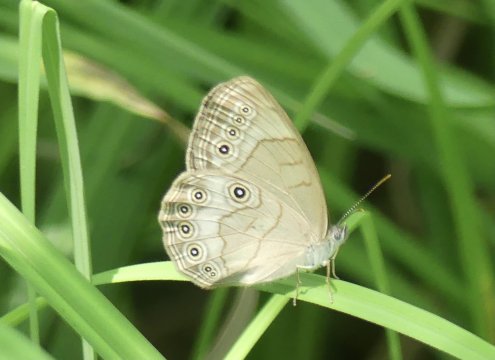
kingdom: Animalia
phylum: Arthropoda
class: Insecta
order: Lepidoptera
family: Nymphalidae
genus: Lethe
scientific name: Lethe eurydice
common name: Appalachian Eyed Brown
